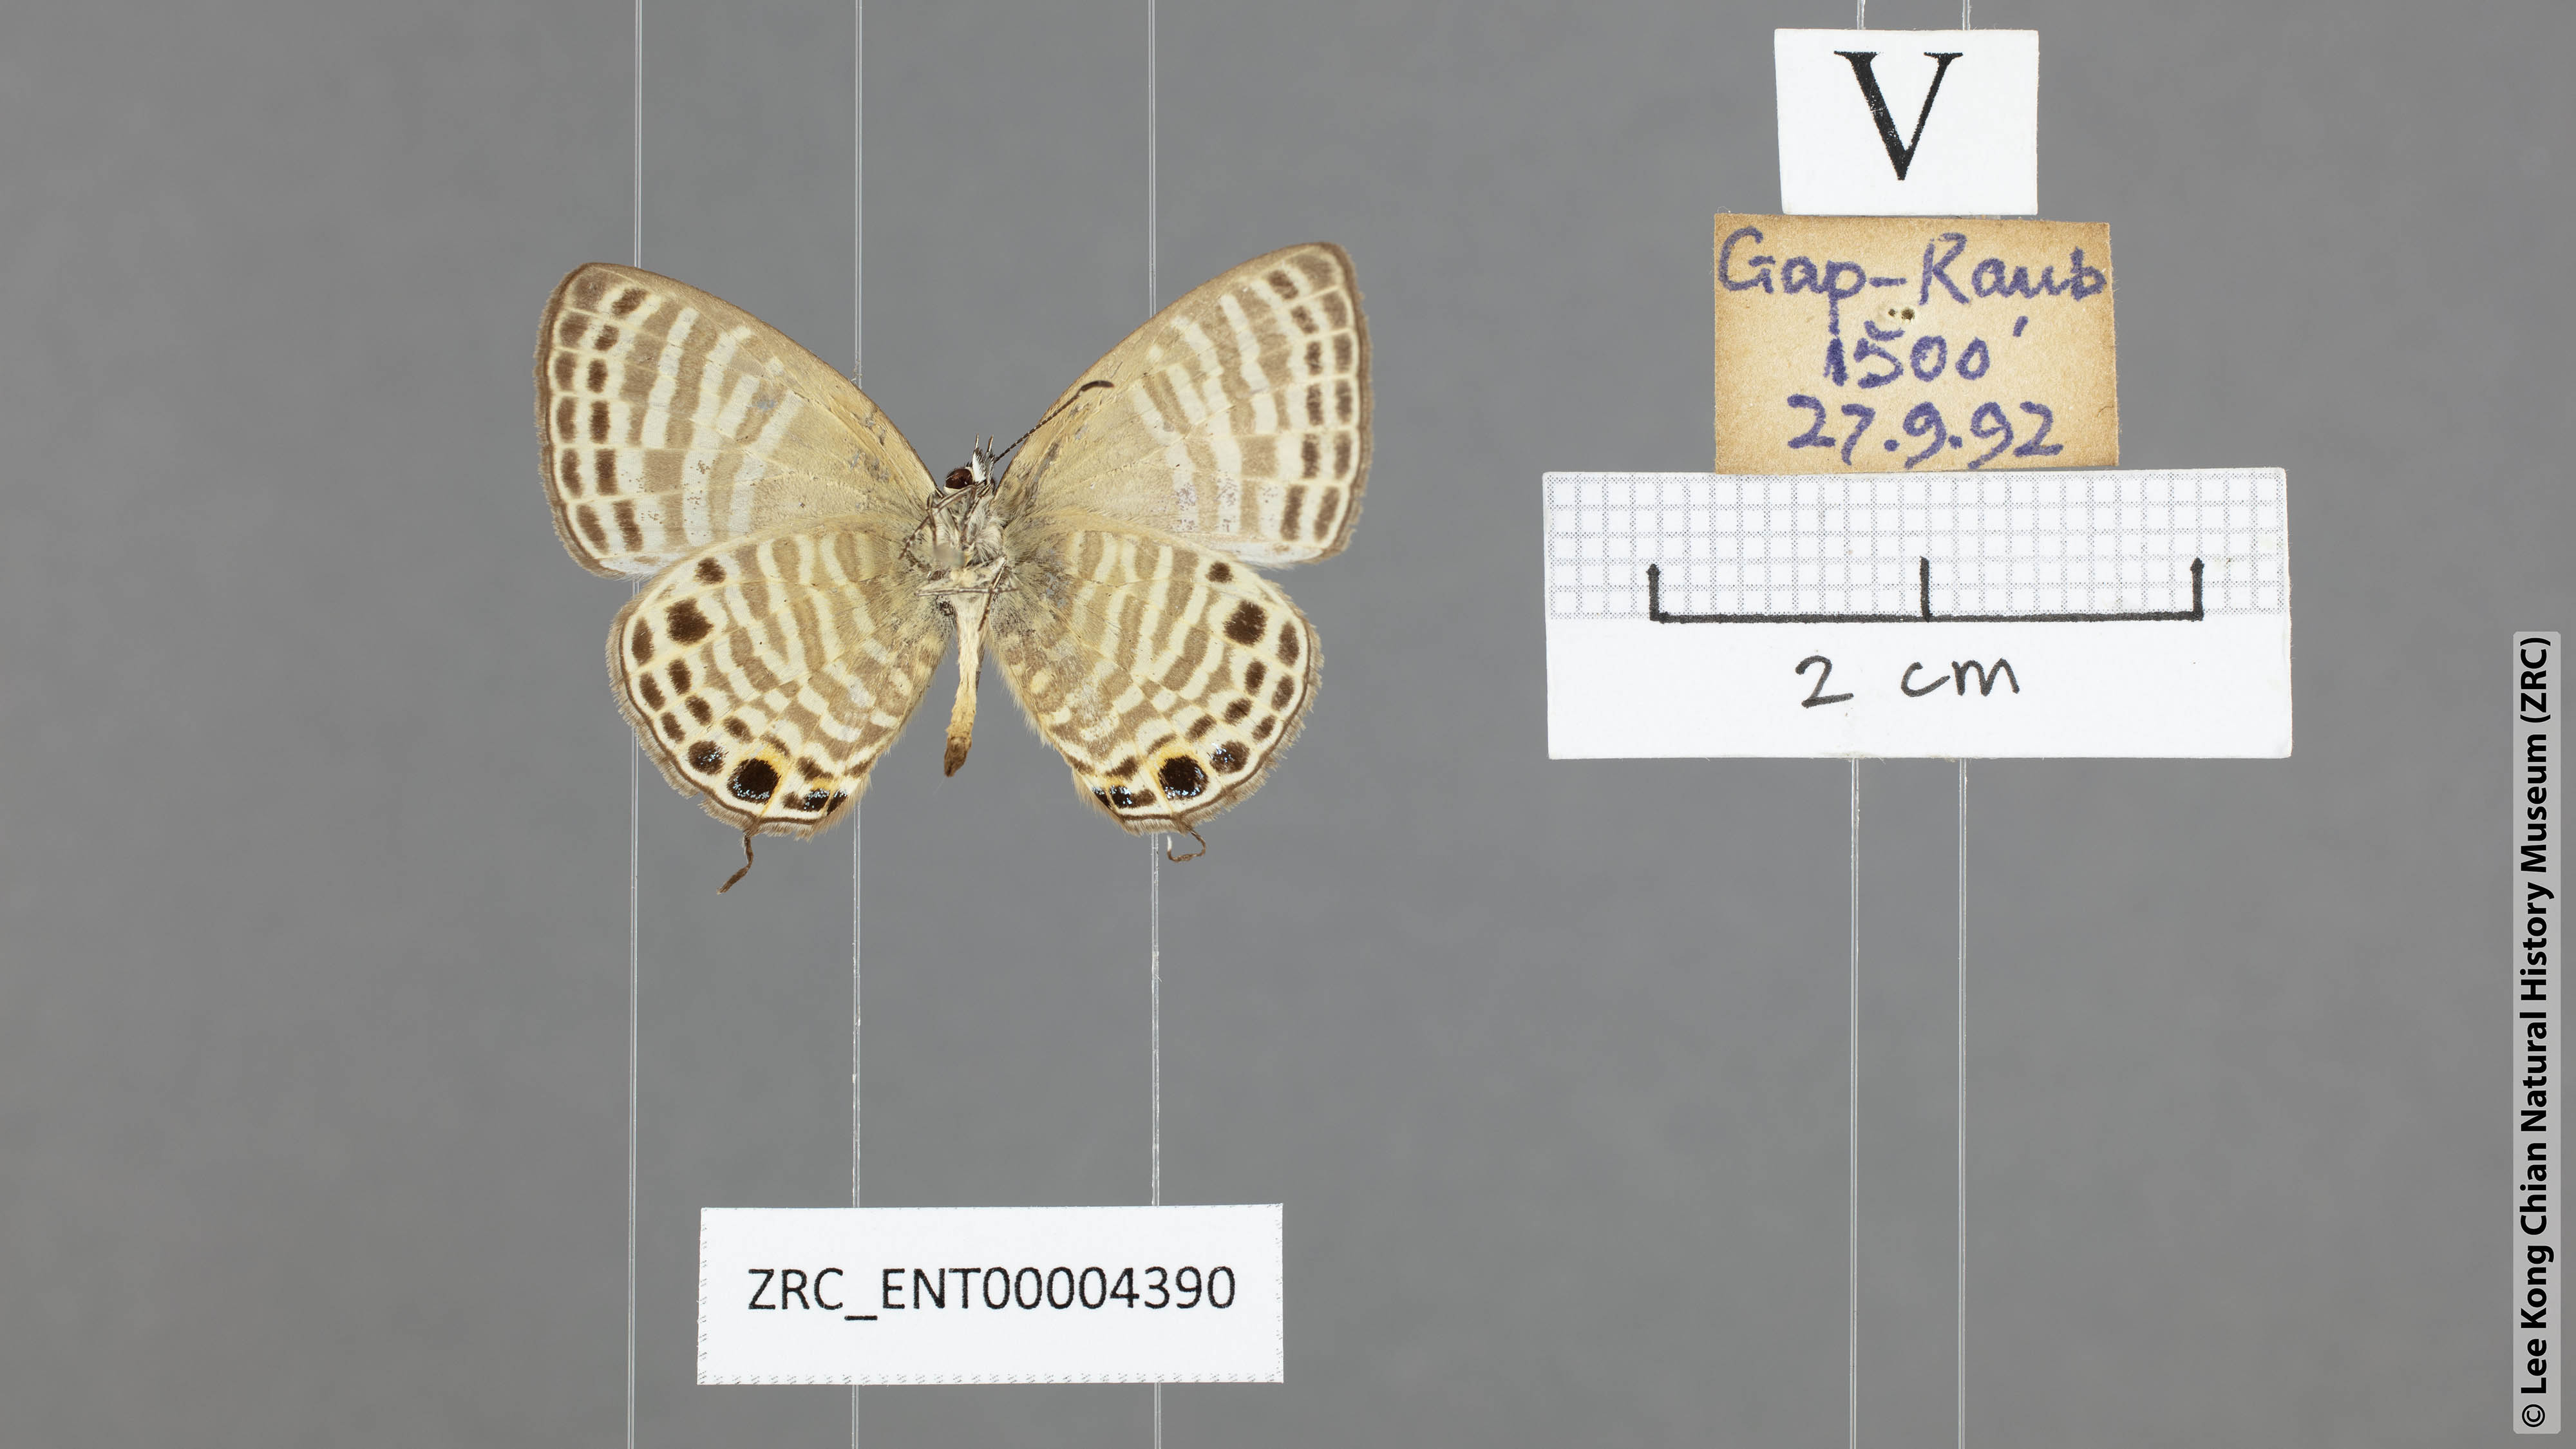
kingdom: Animalia
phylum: Arthropoda
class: Insecta
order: Lepidoptera
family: Lycaenidae
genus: Nacaduba
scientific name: Nacaduba angusta
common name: White four-line blue
